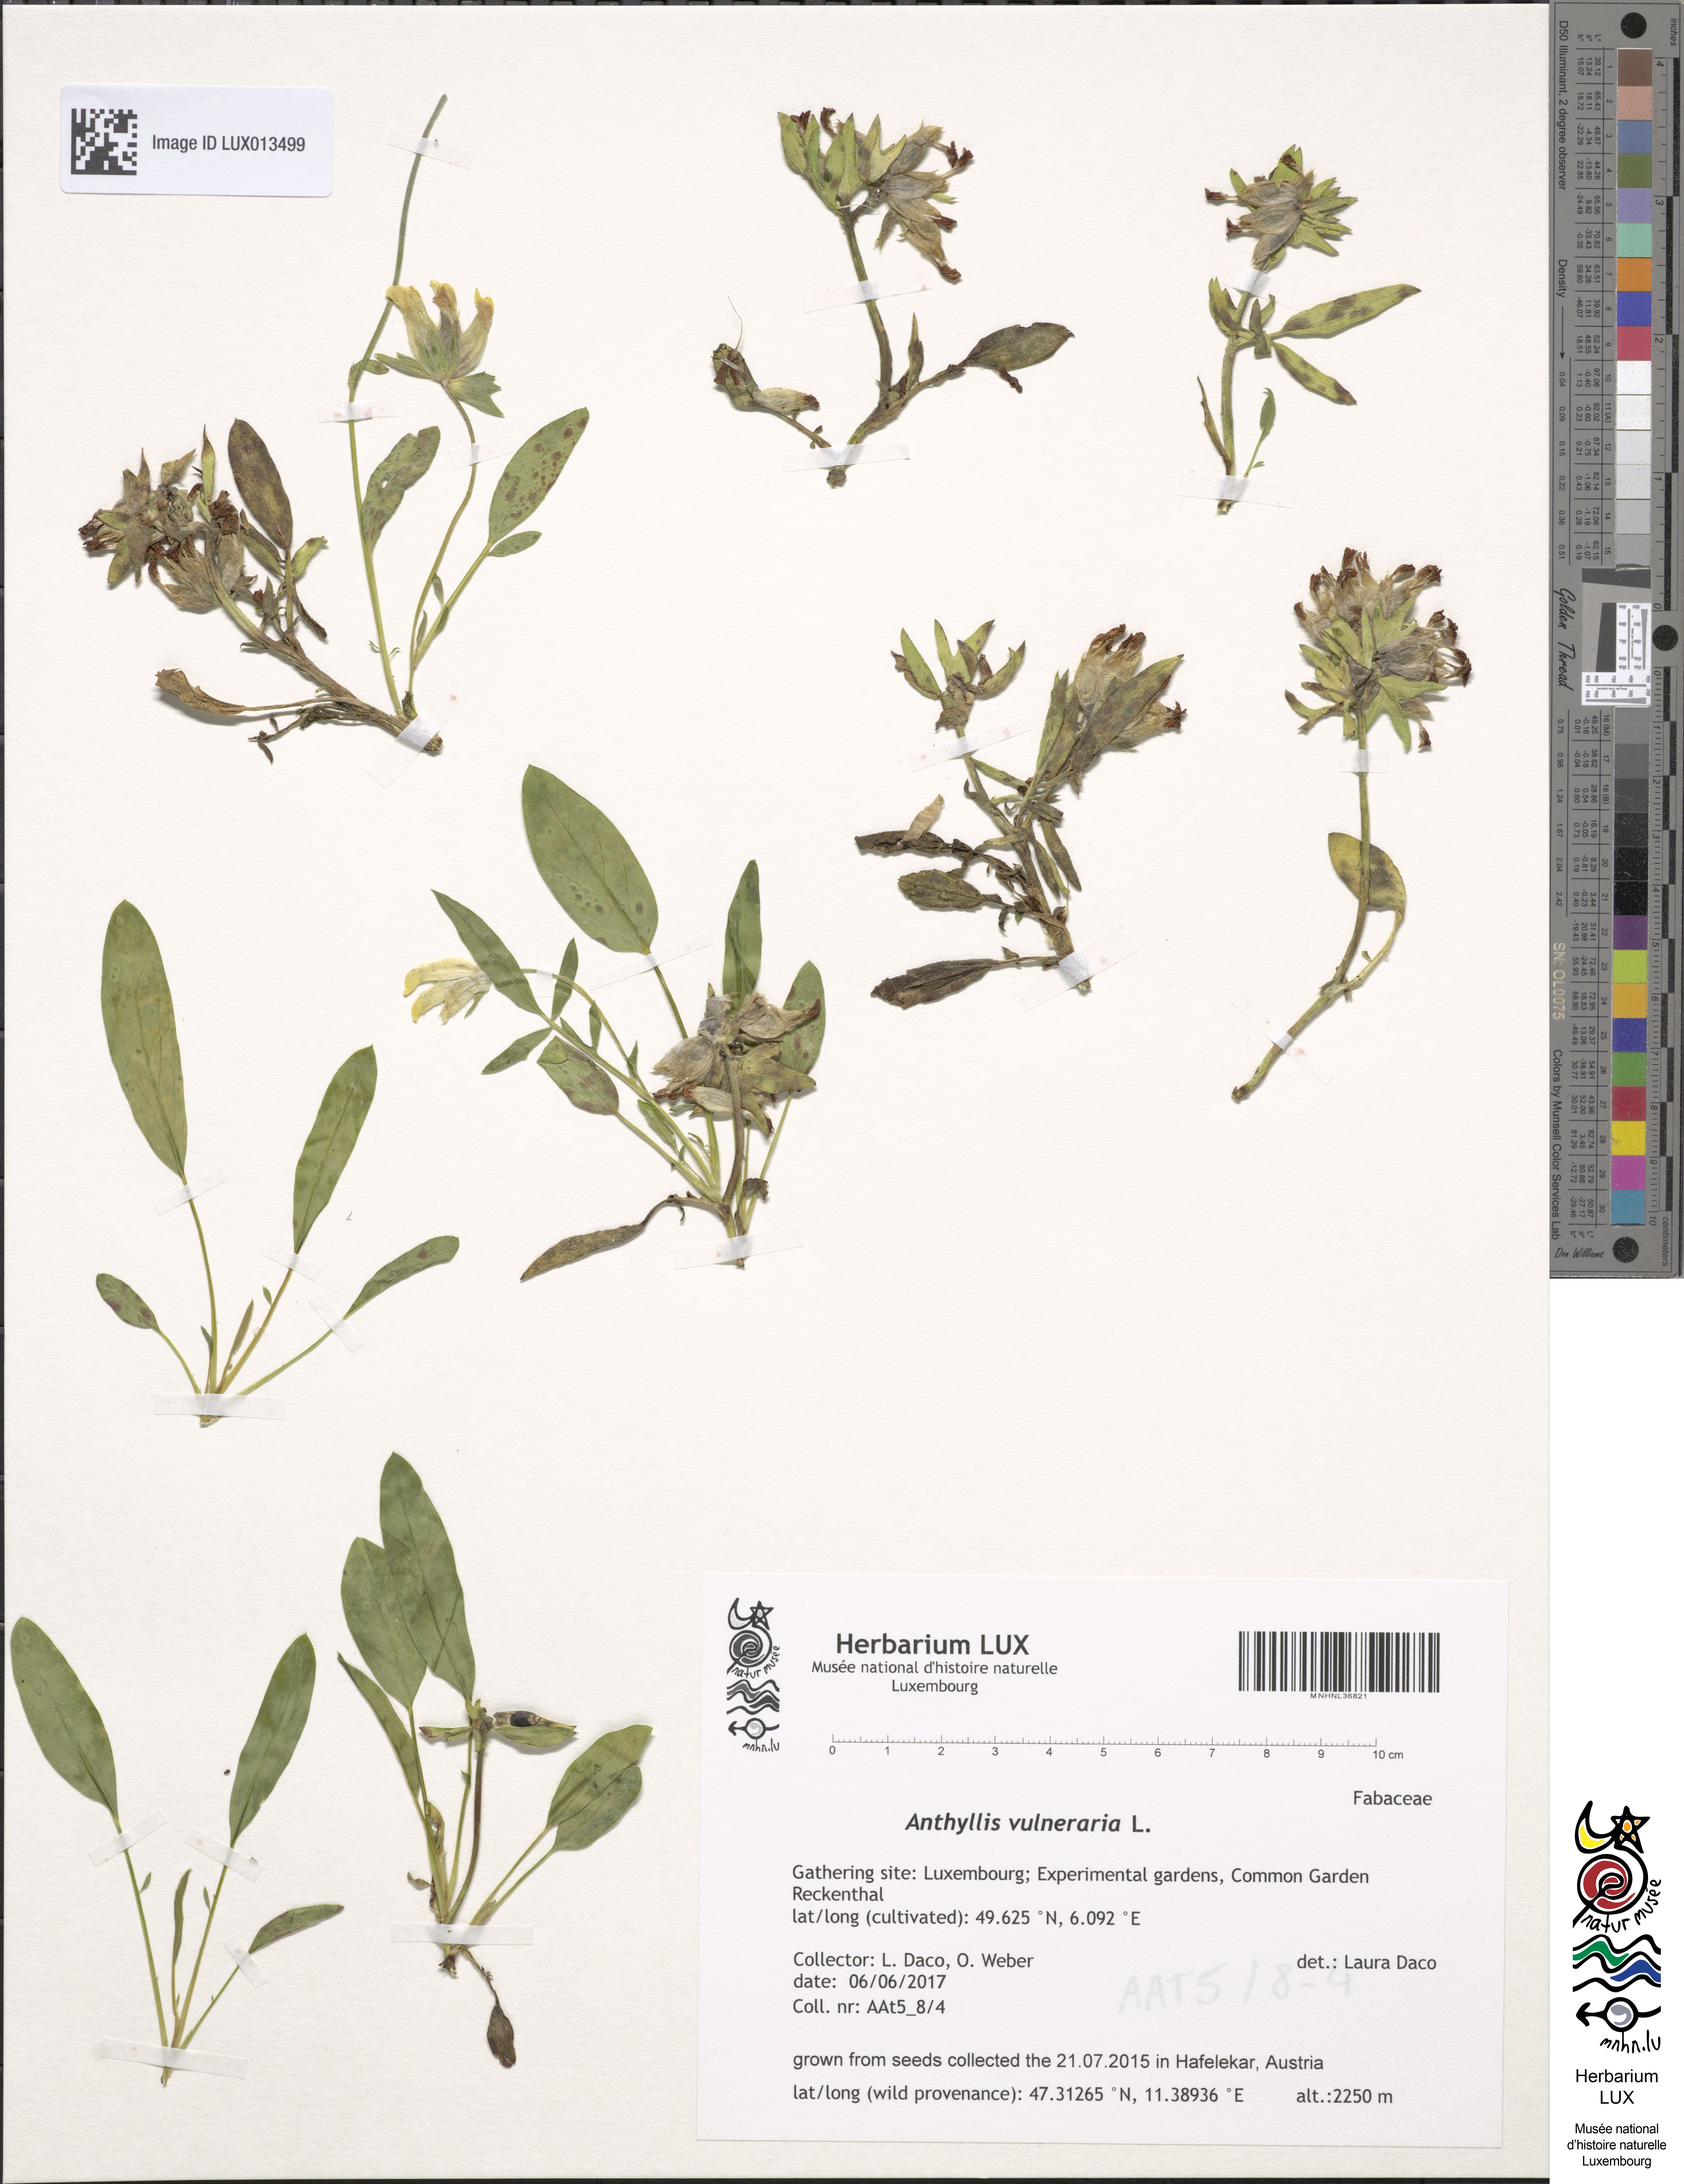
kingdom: Plantae
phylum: Tracheophyta
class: Magnoliopsida
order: Fabales
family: Fabaceae
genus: Anthyllis
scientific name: Anthyllis vulneraria
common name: Kidney vetch
